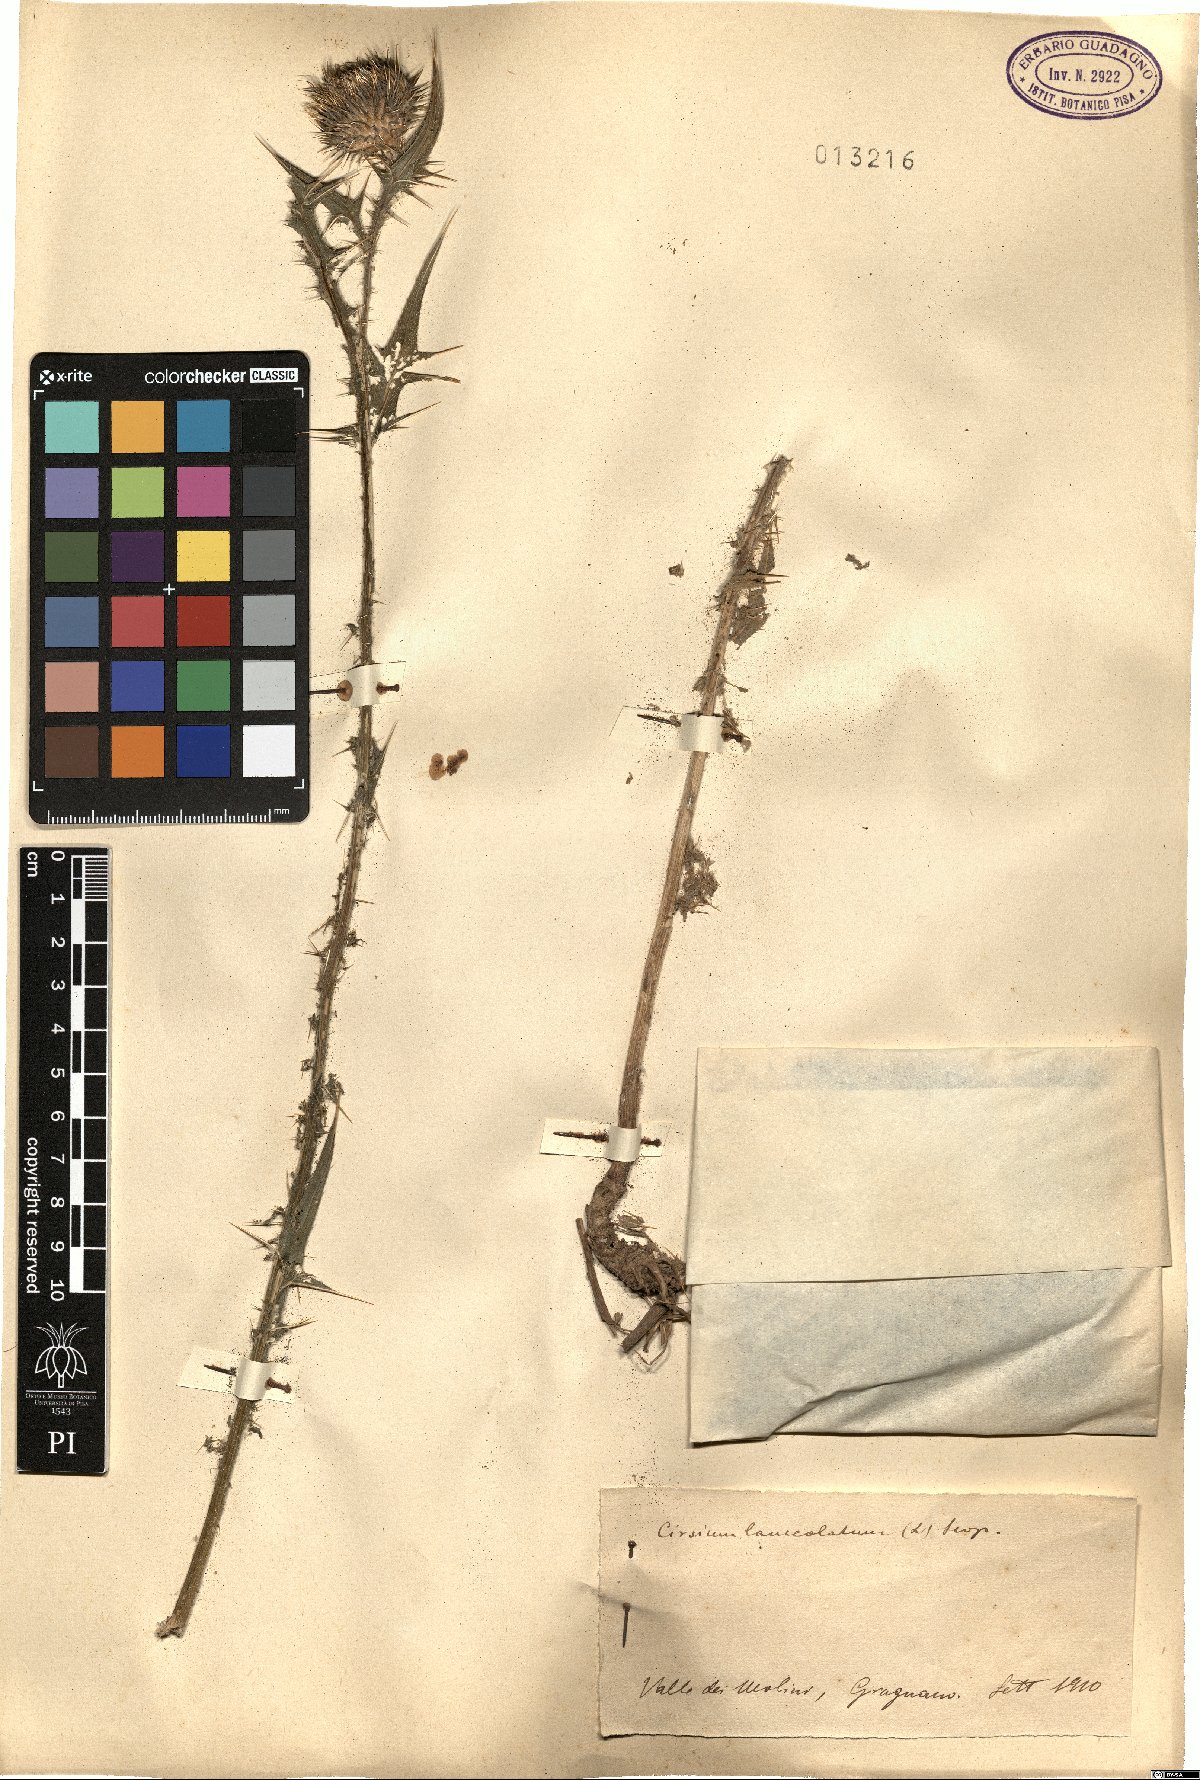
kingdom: Plantae
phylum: Tracheophyta
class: Magnoliopsida
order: Asterales
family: Asteraceae
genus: Cirsium
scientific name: Cirsium vulgare
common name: Bull thistle
